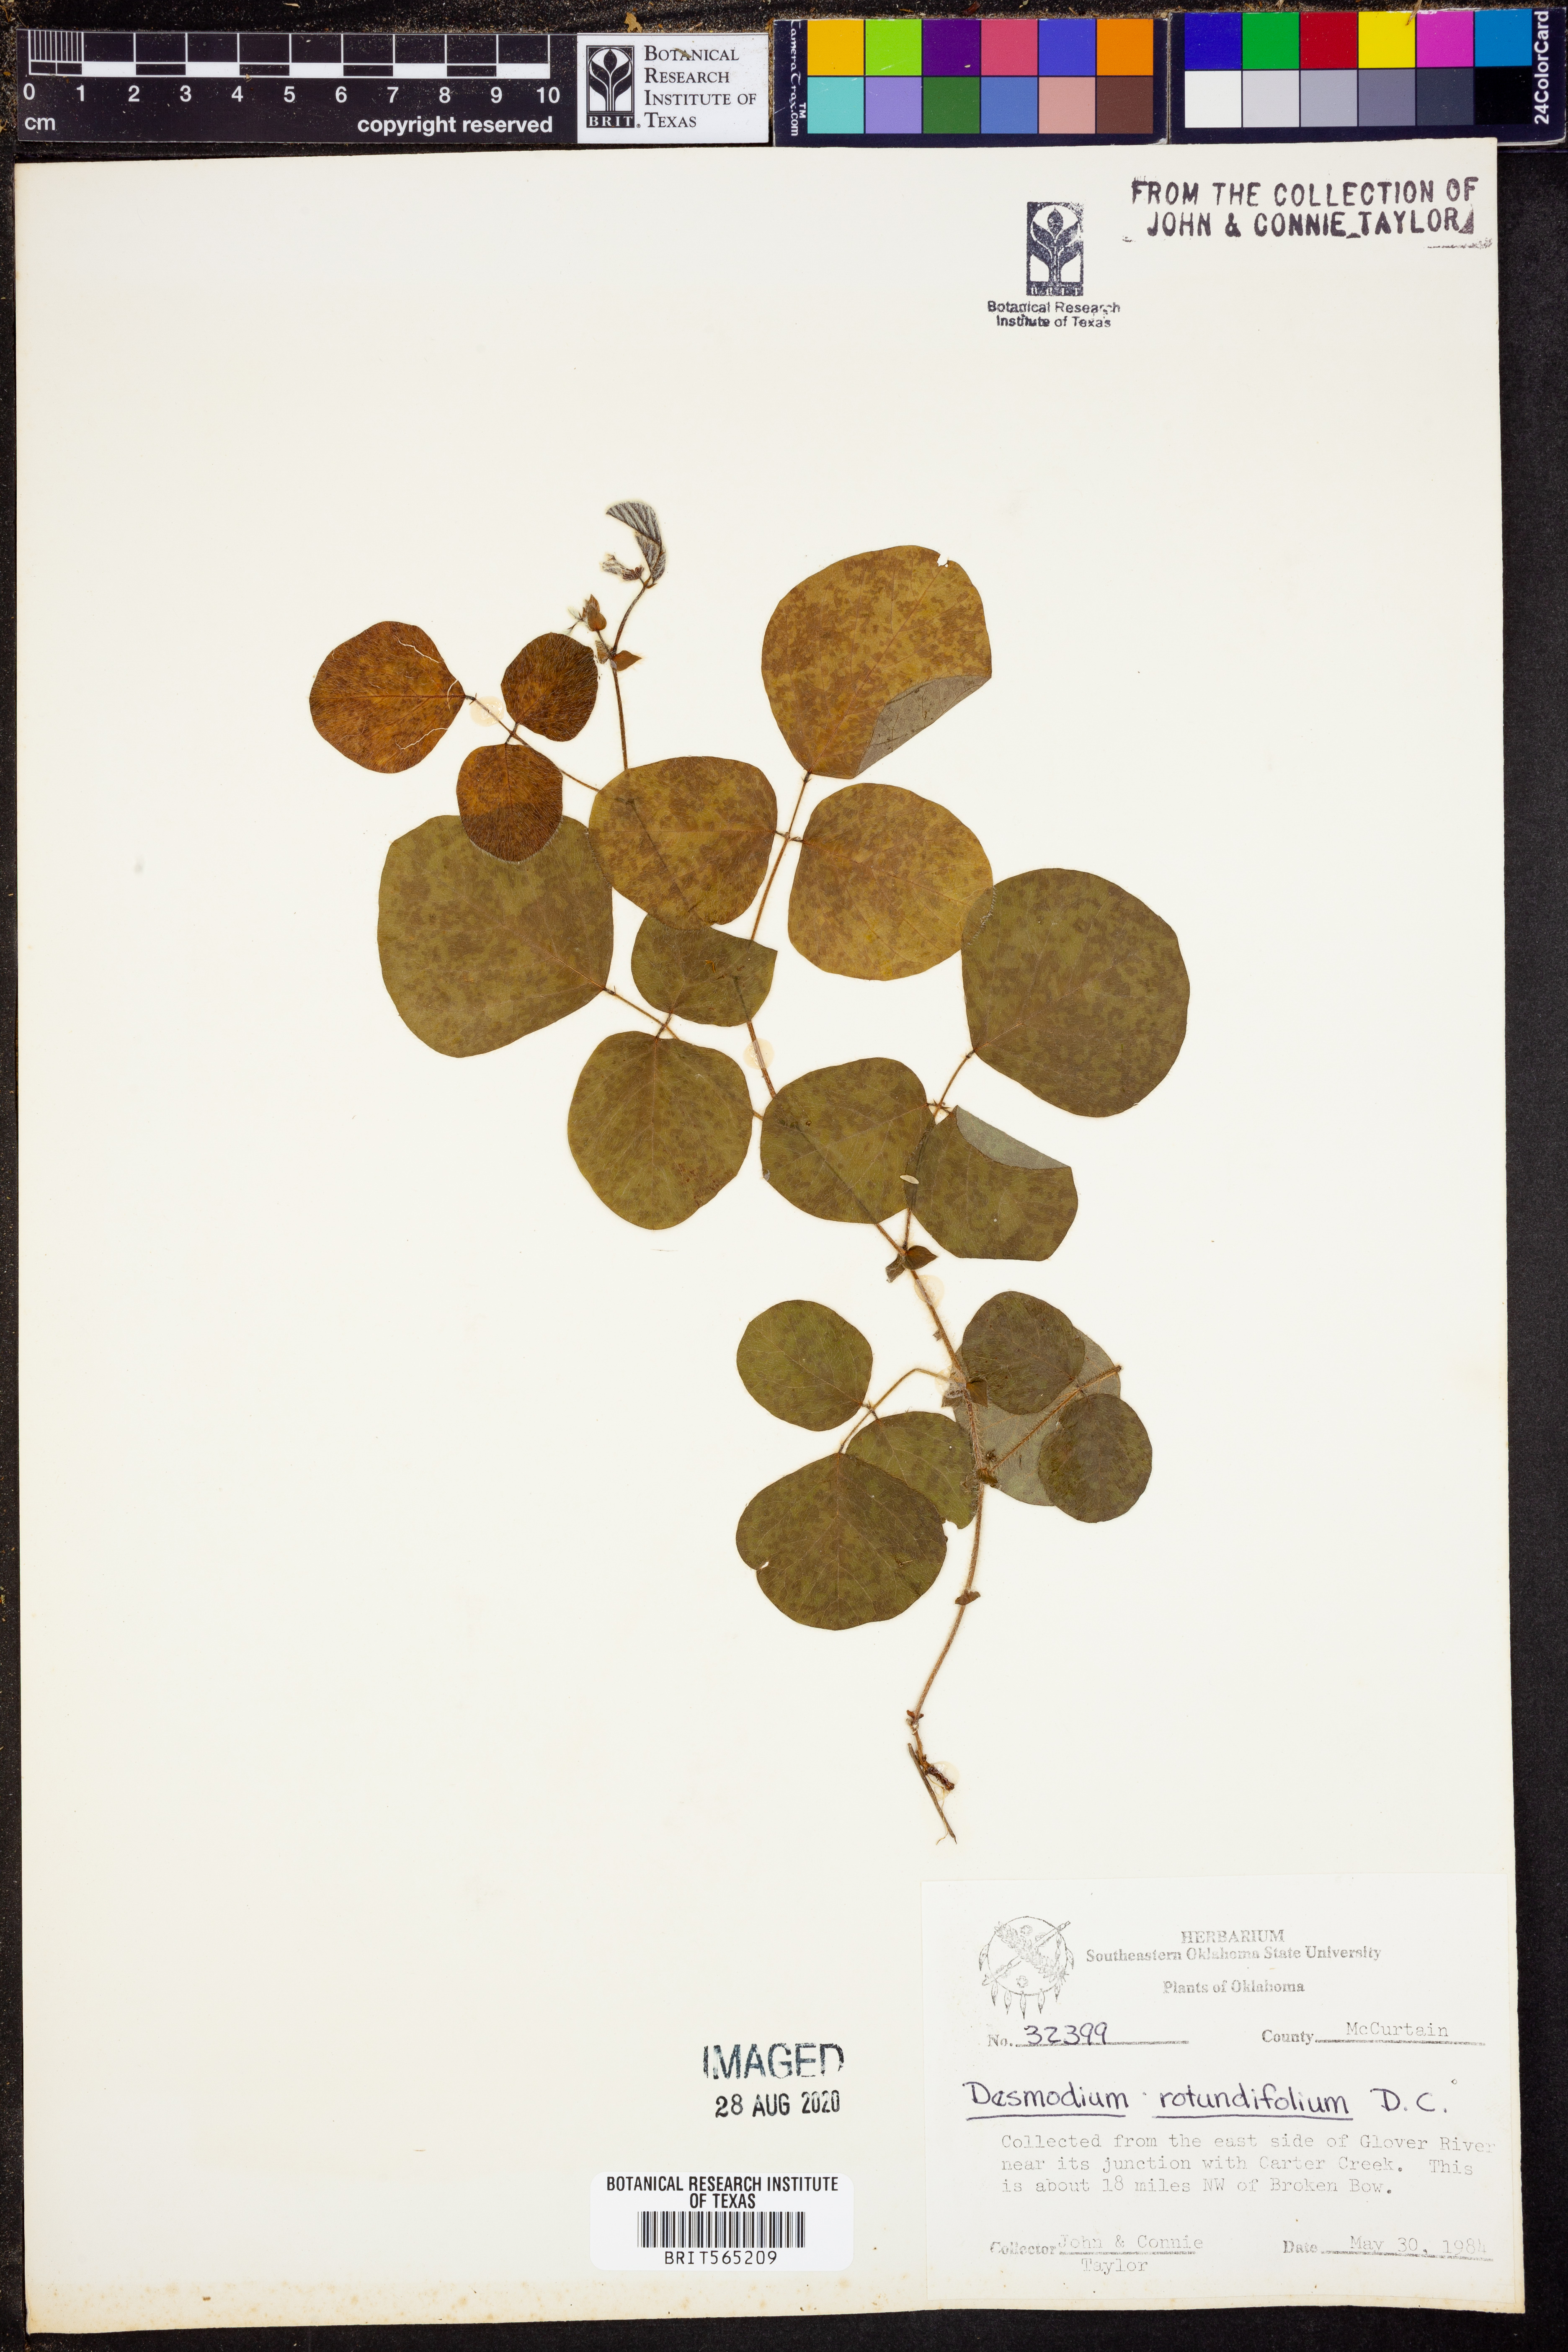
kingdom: Plantae
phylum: Tracheophyta
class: Magnoliopsida
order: Fabales
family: Fabaceae
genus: Desmodium
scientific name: Desmodium rotundifolium
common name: Dollarleaf
